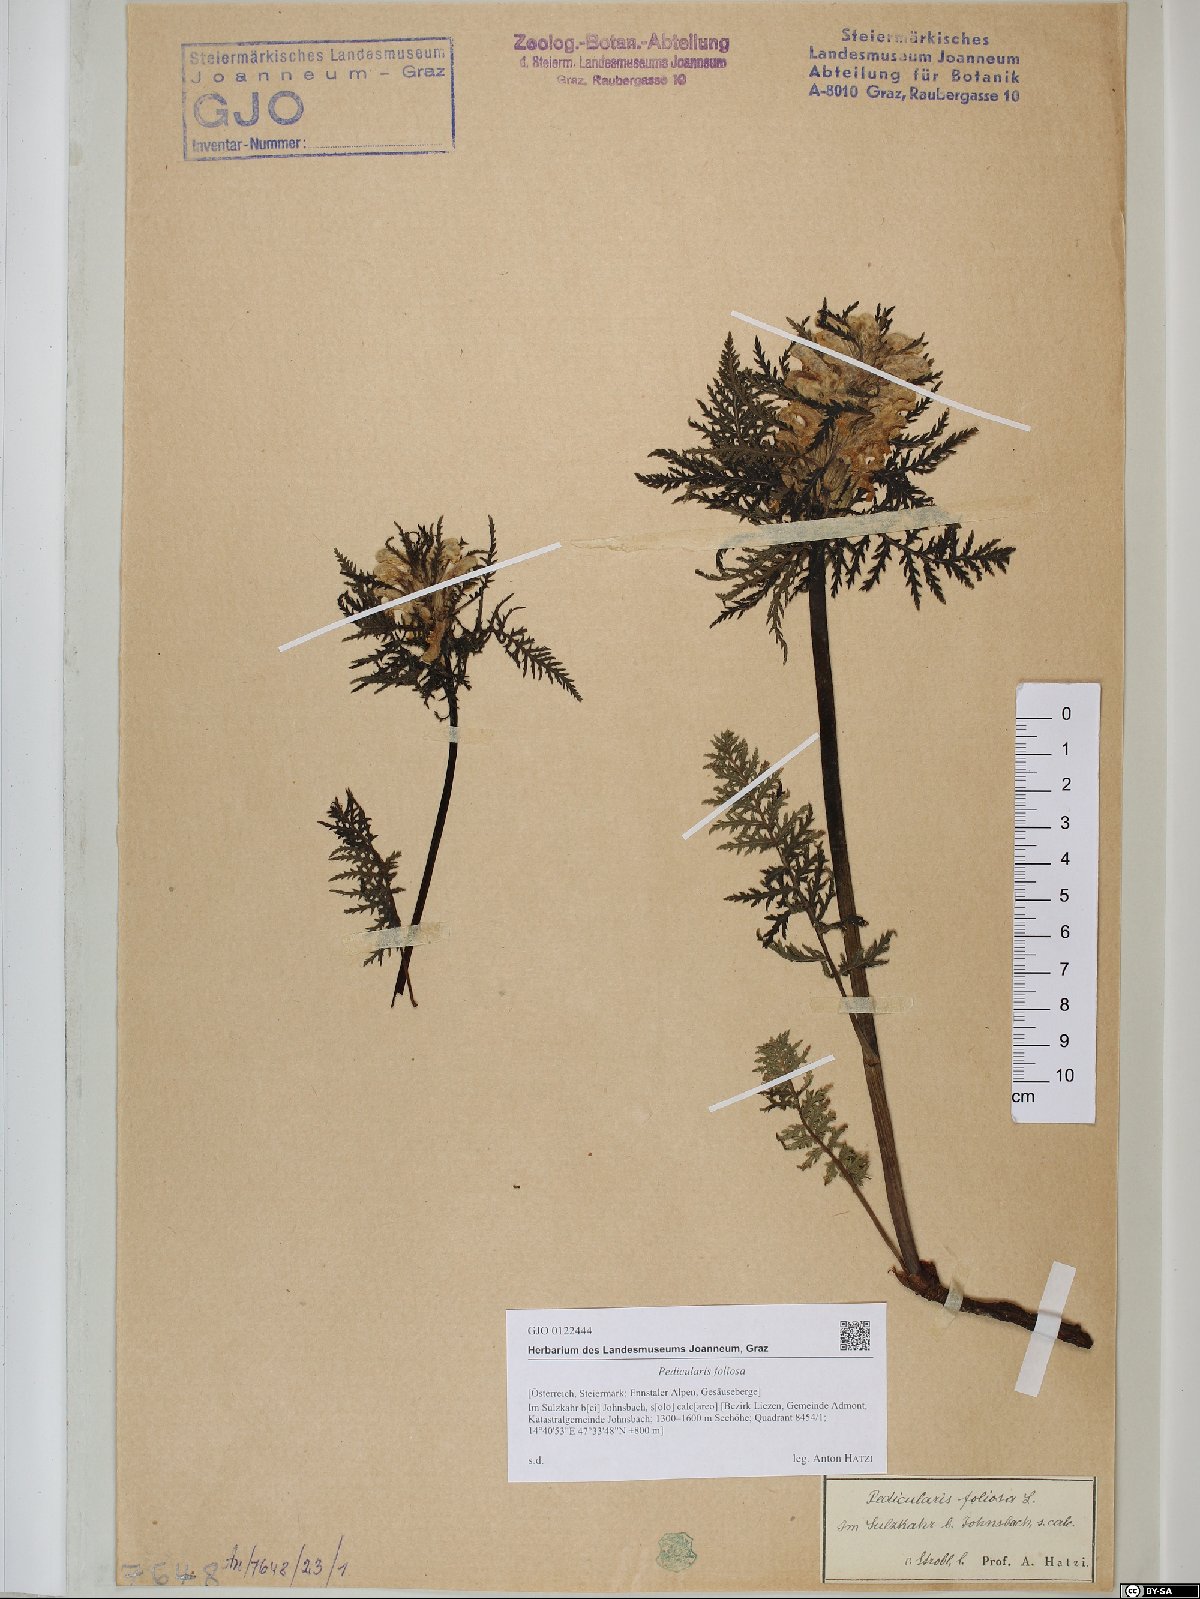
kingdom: Plantae
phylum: Tracheophyta
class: Magnoliopsida
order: Lamiales
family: Orobanchaceae
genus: Pedicularis
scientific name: Pedicularis foliosa
